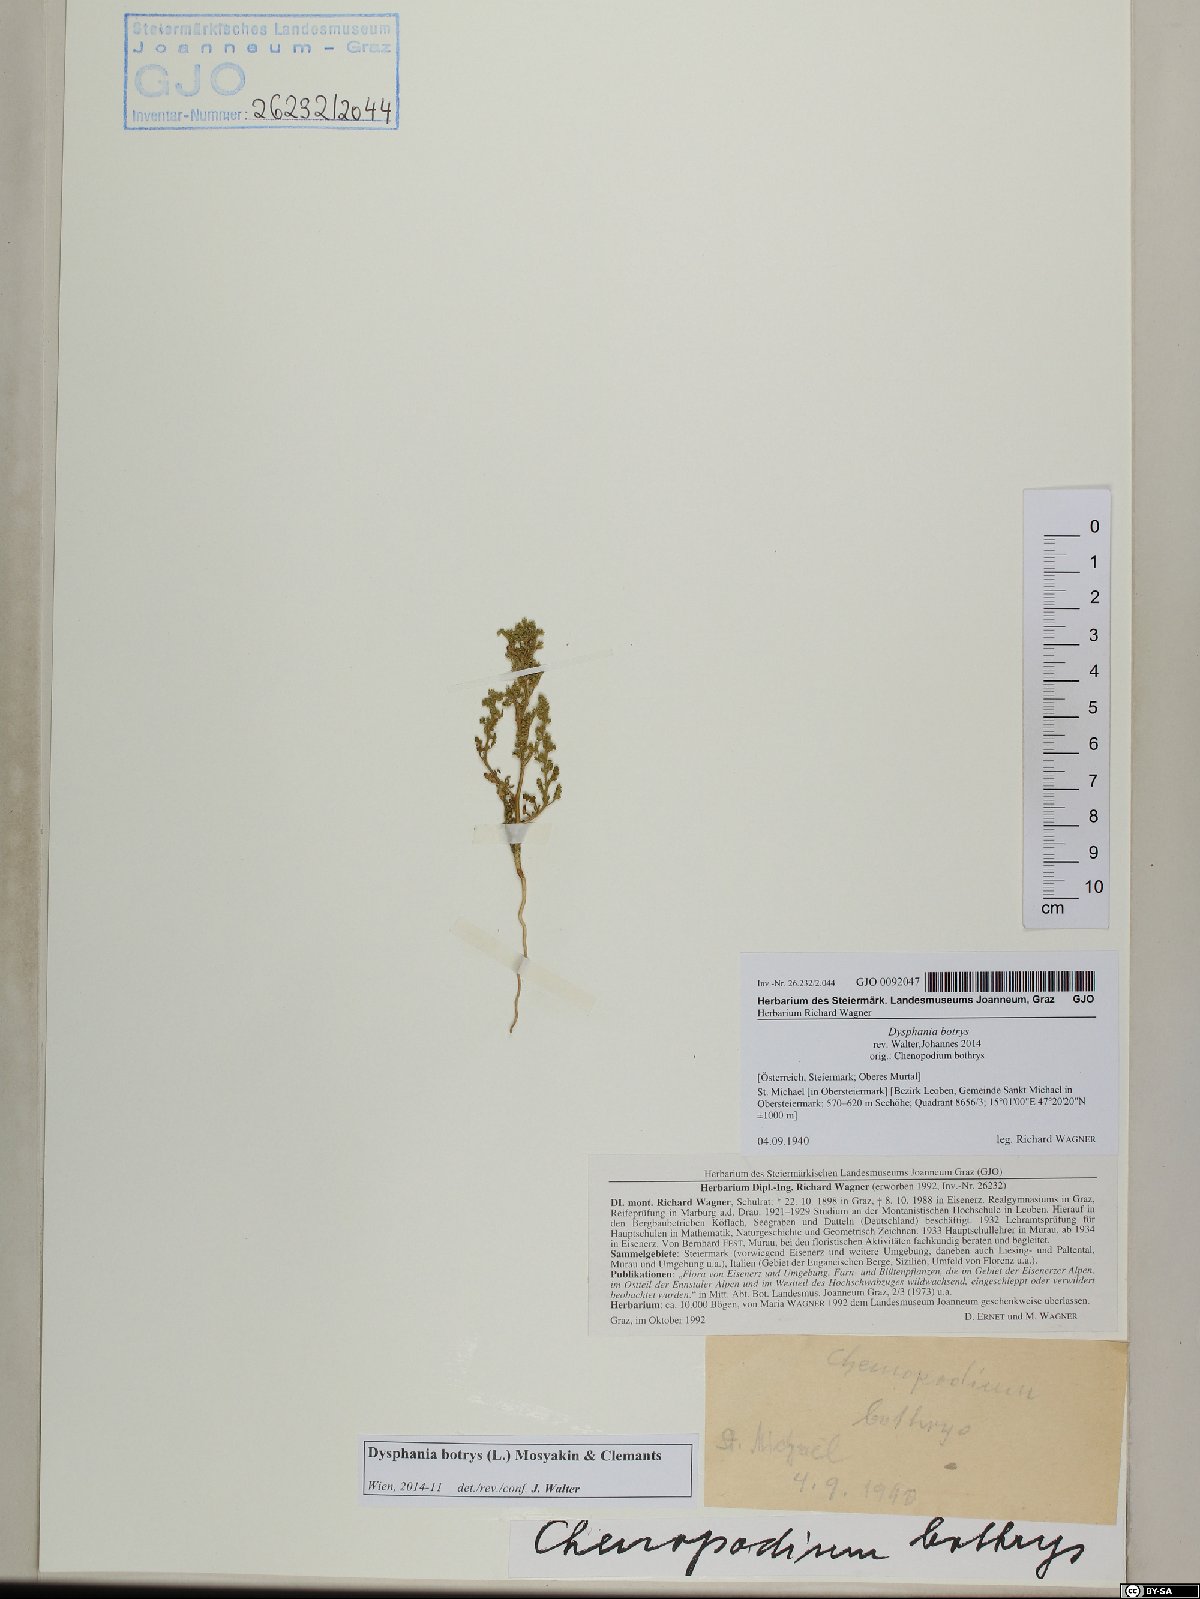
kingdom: Plantae
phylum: Tracheophyta
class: Magnoliopsida
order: Caryophyllales
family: Amaranthaceae
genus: Dysphania
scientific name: Dysphania botrys
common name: Feather-geranium
